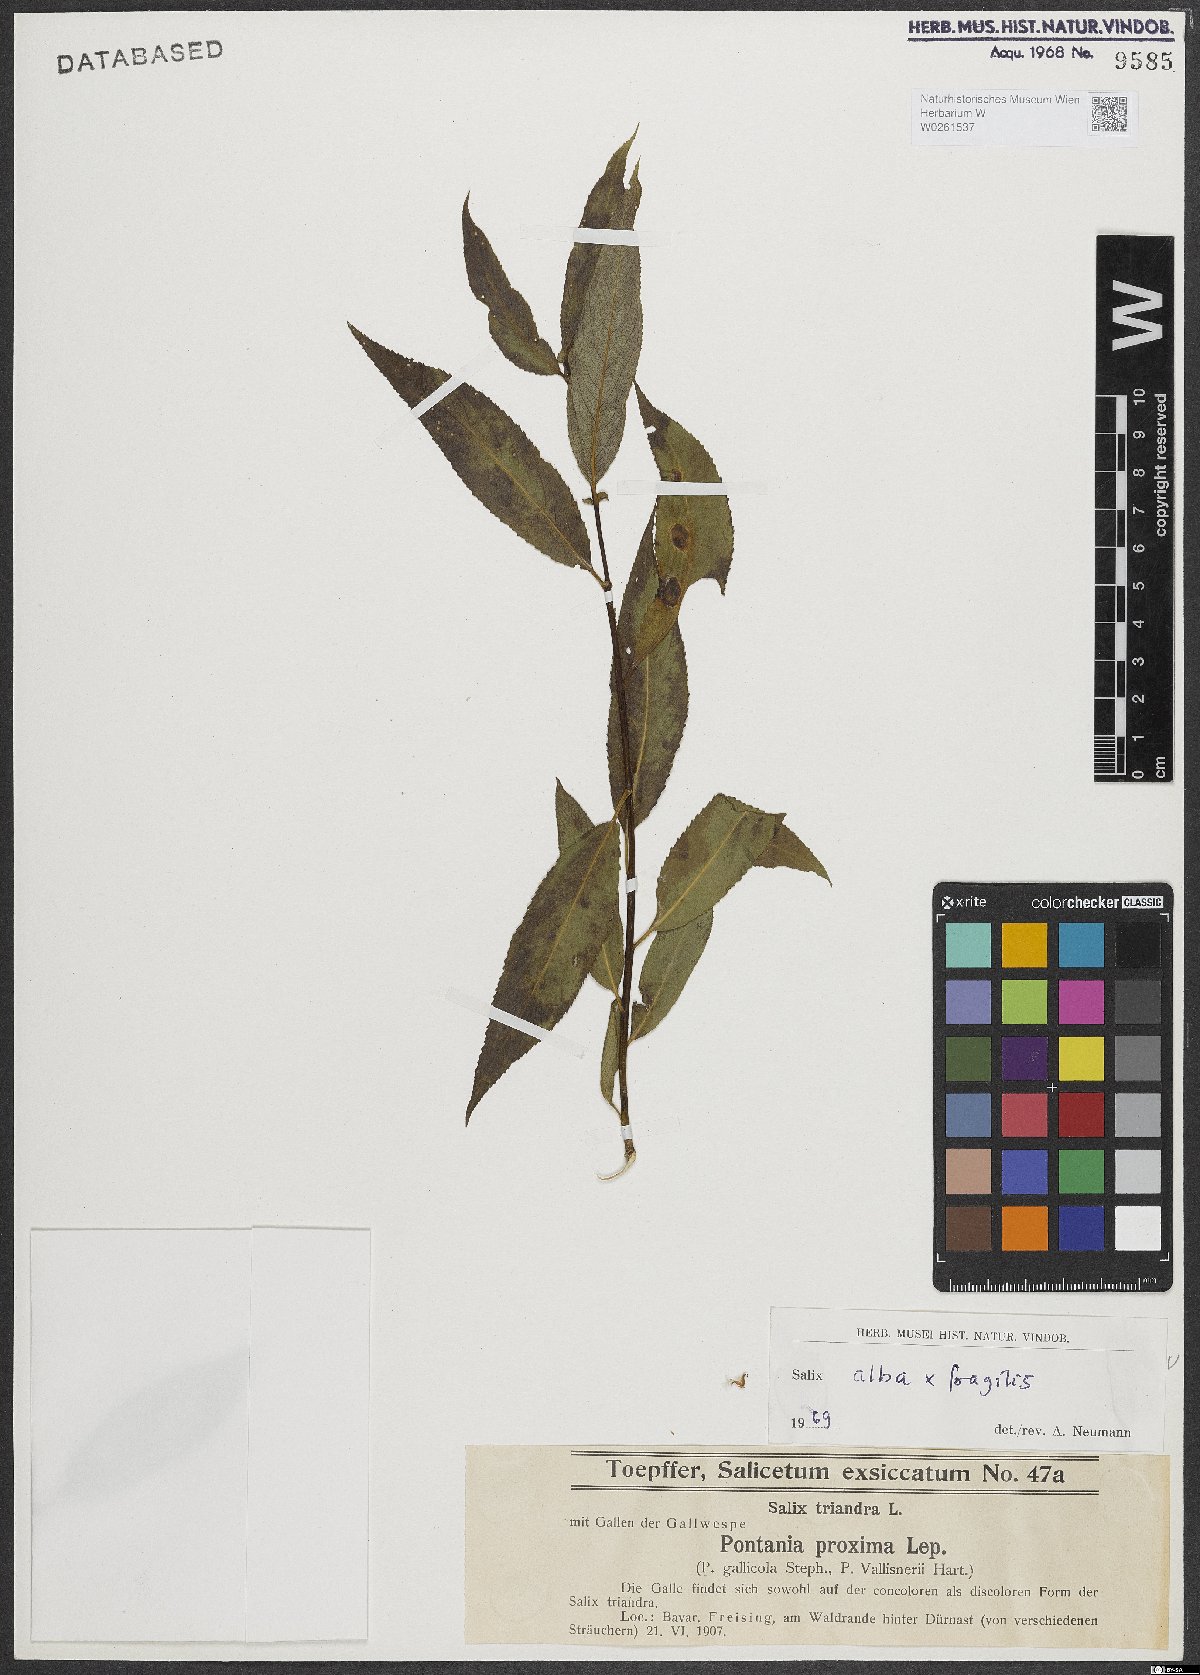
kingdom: Plantae
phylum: Tracheophyta
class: Magnoliopsida
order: Malpighiales
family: Salicaceae
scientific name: Salicaceae
